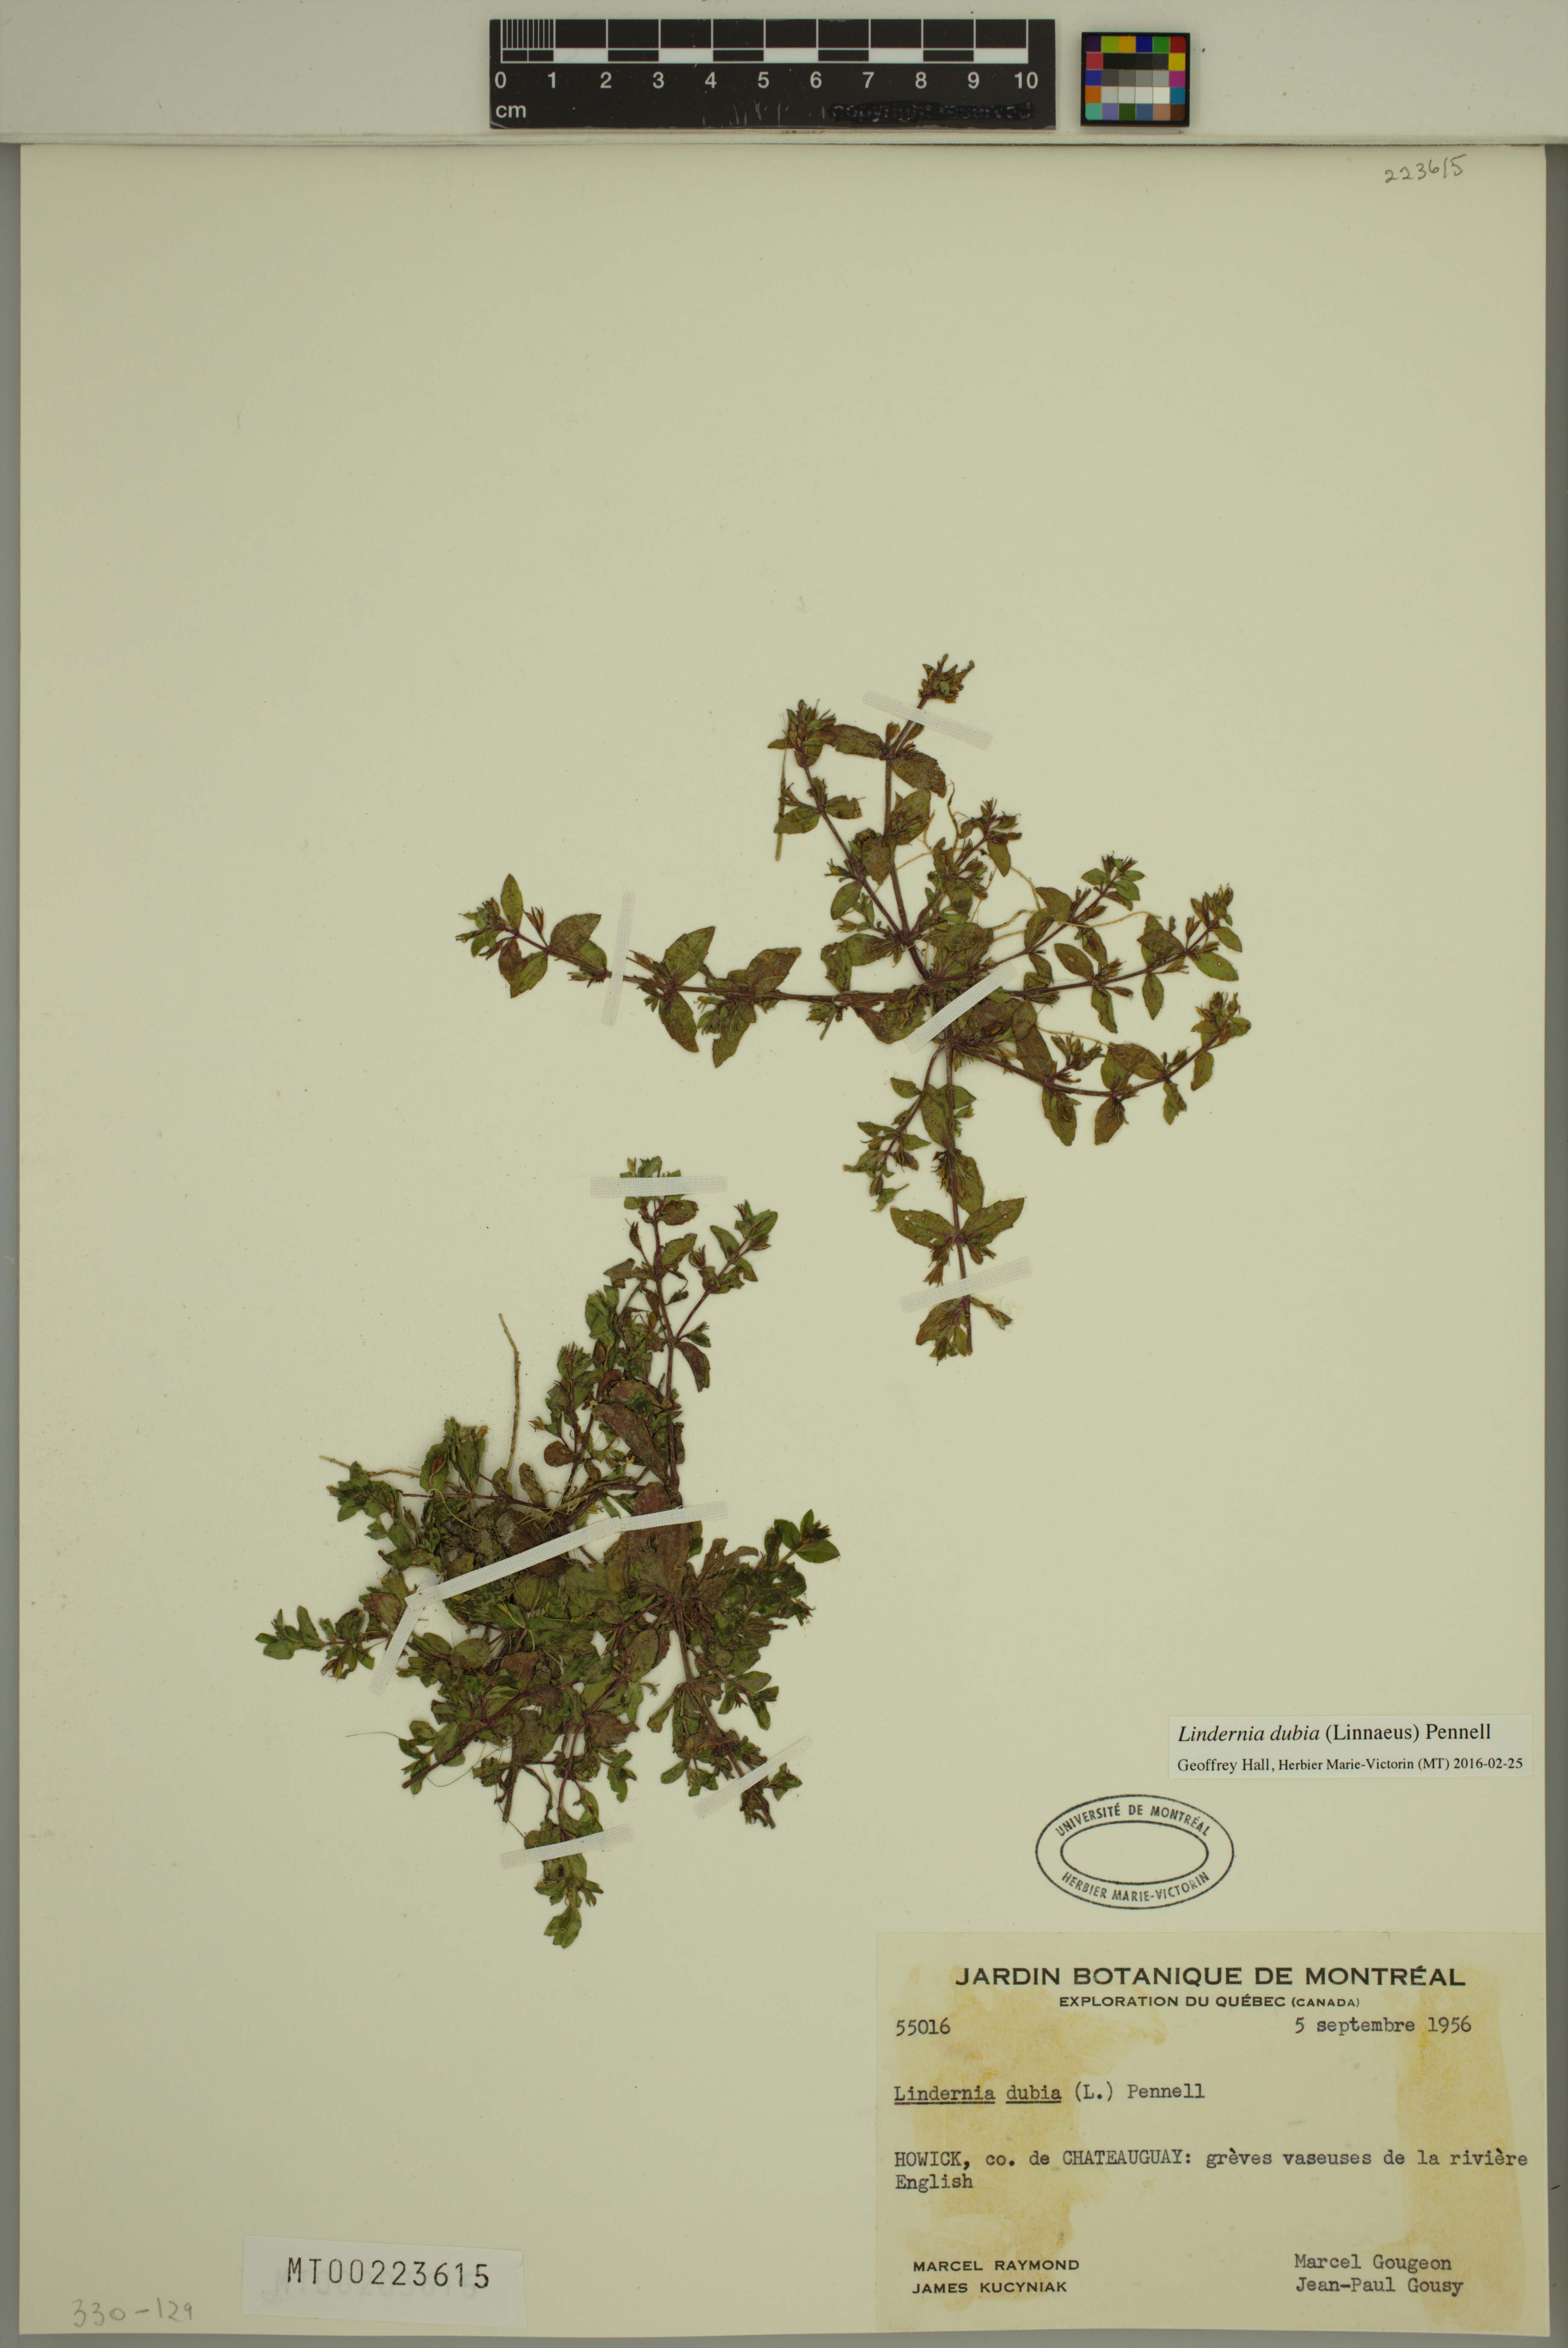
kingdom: Plantae
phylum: Tracheophyta
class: Magnoliopsida
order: Lamiales
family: Linderniaceae
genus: Lindernia
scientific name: Lindernia dubia
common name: Annual false pimpernel
